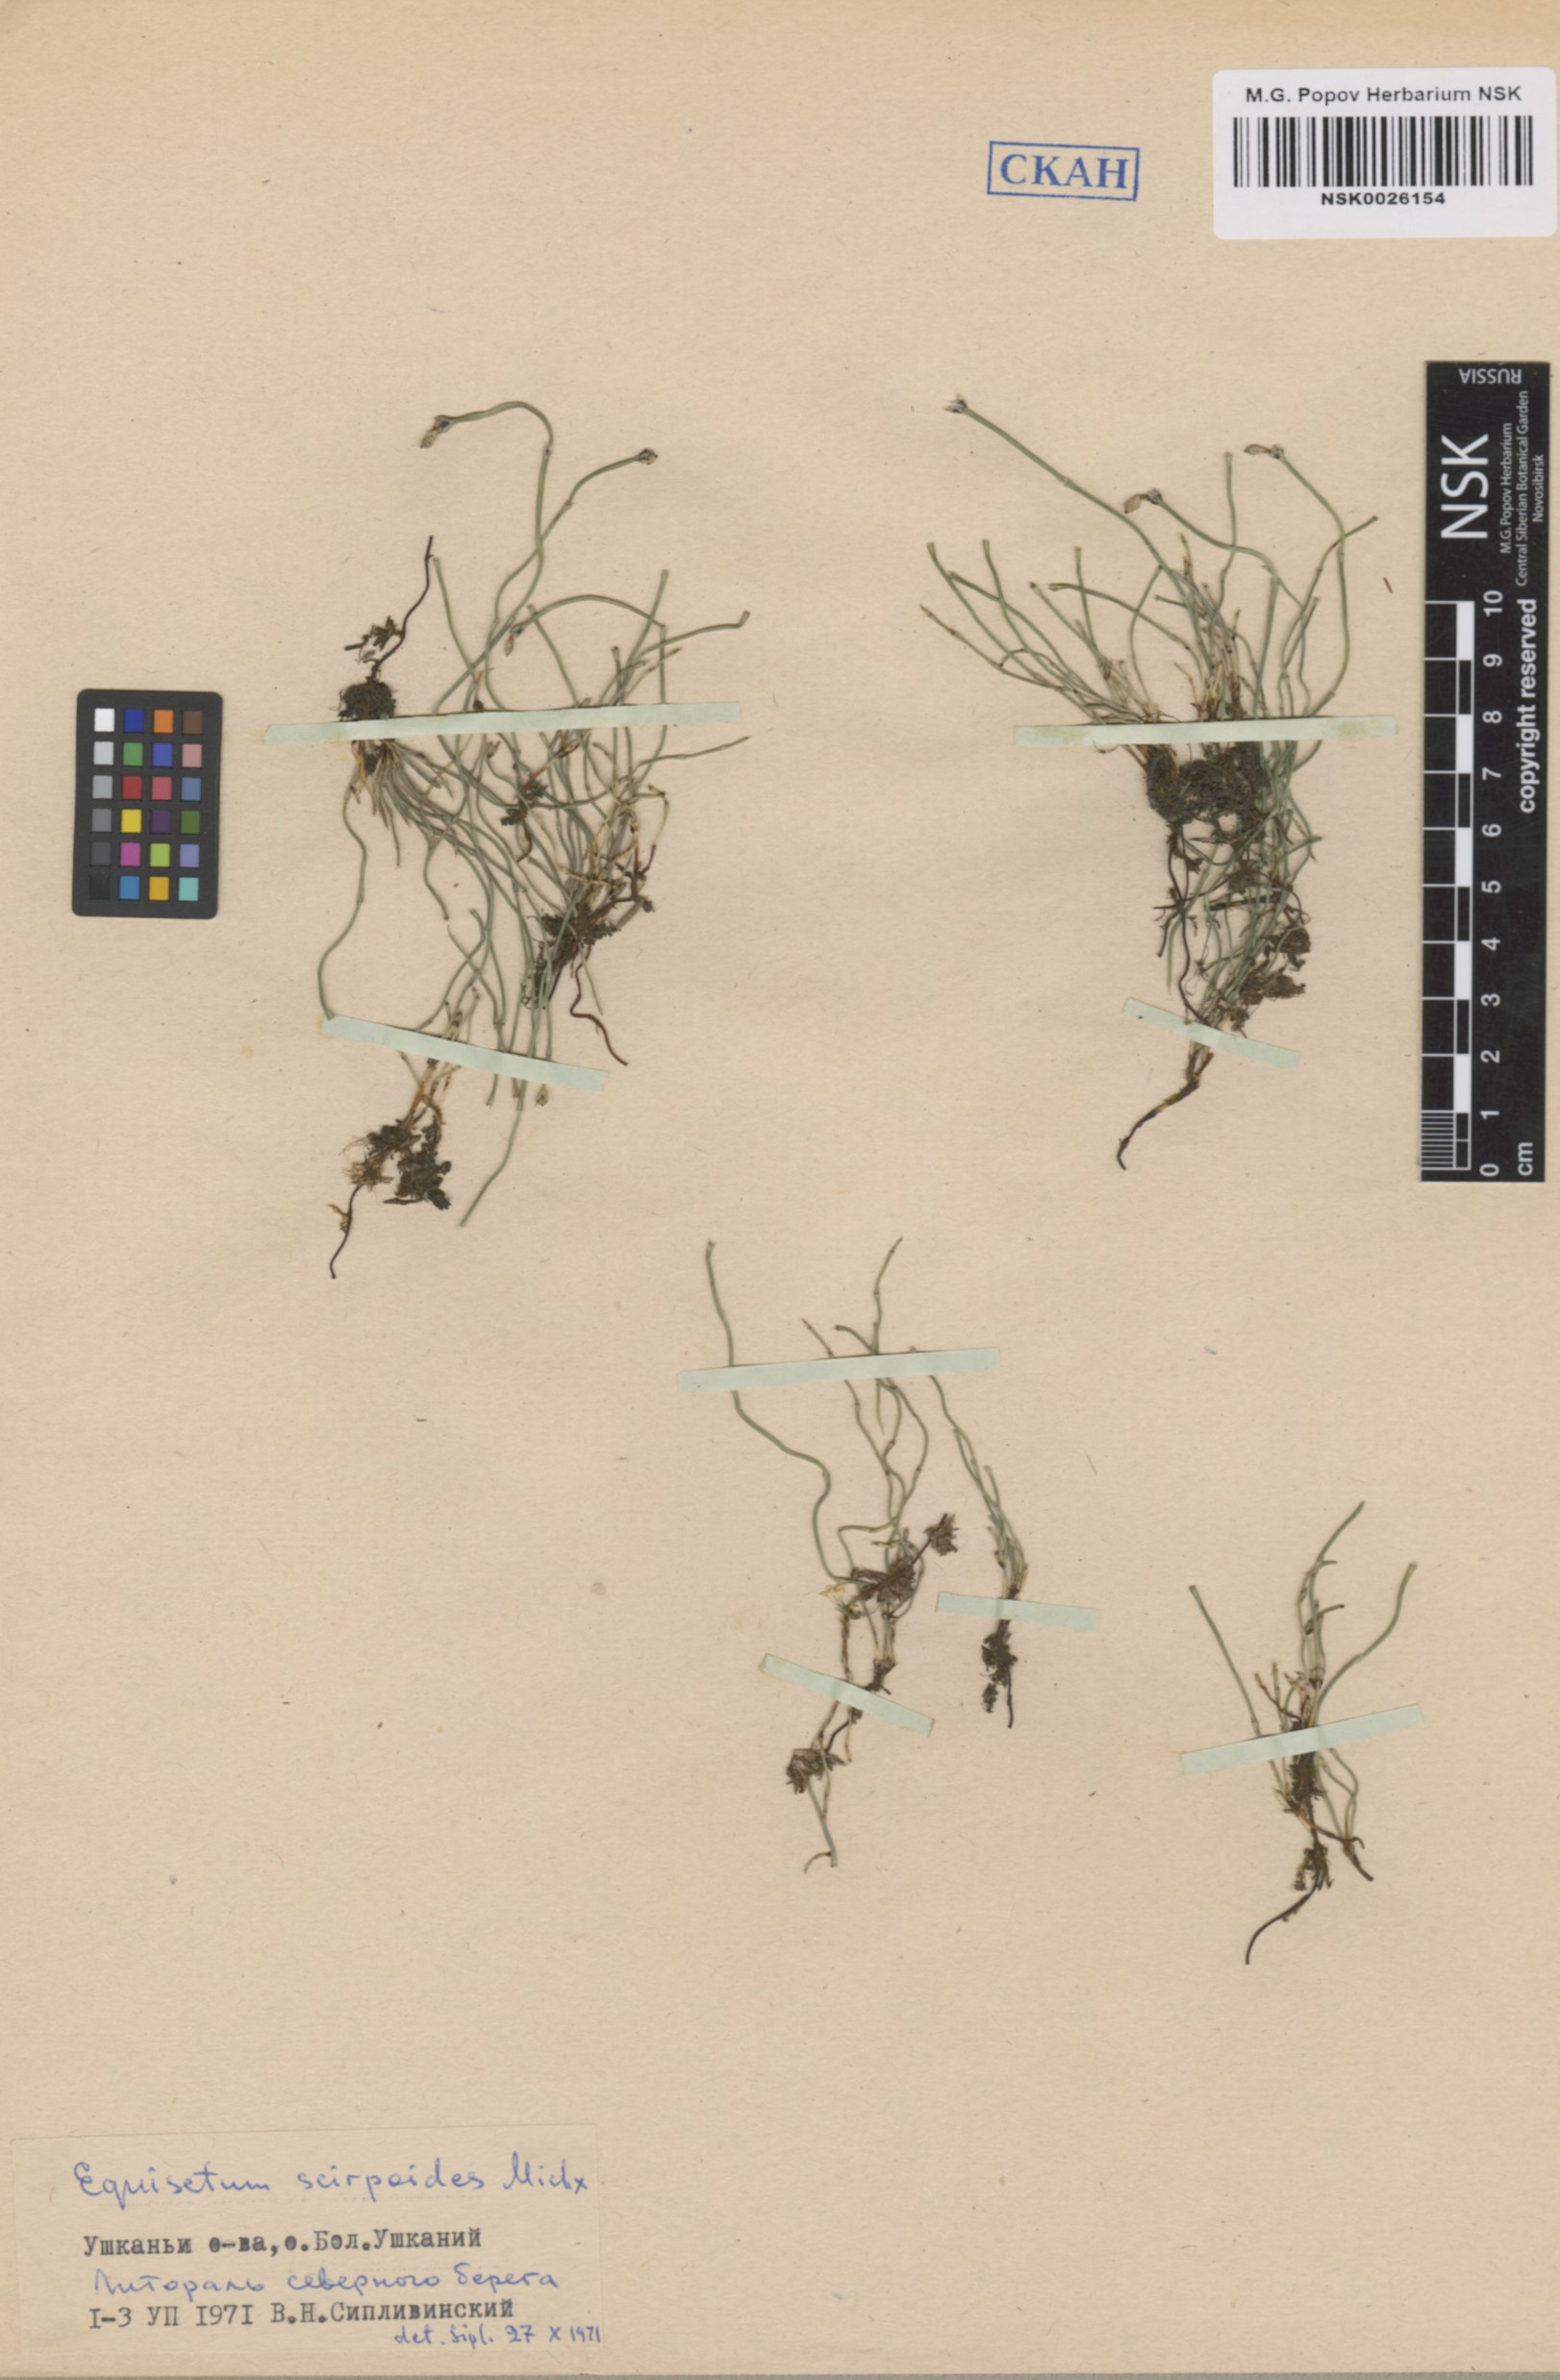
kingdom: Plantae
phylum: Tracheophyta
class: Polypodiopsida
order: Equisetales
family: Equisetaceae
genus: Equisetum
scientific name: Equisetum scirpoides
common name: Delicate horsetail
